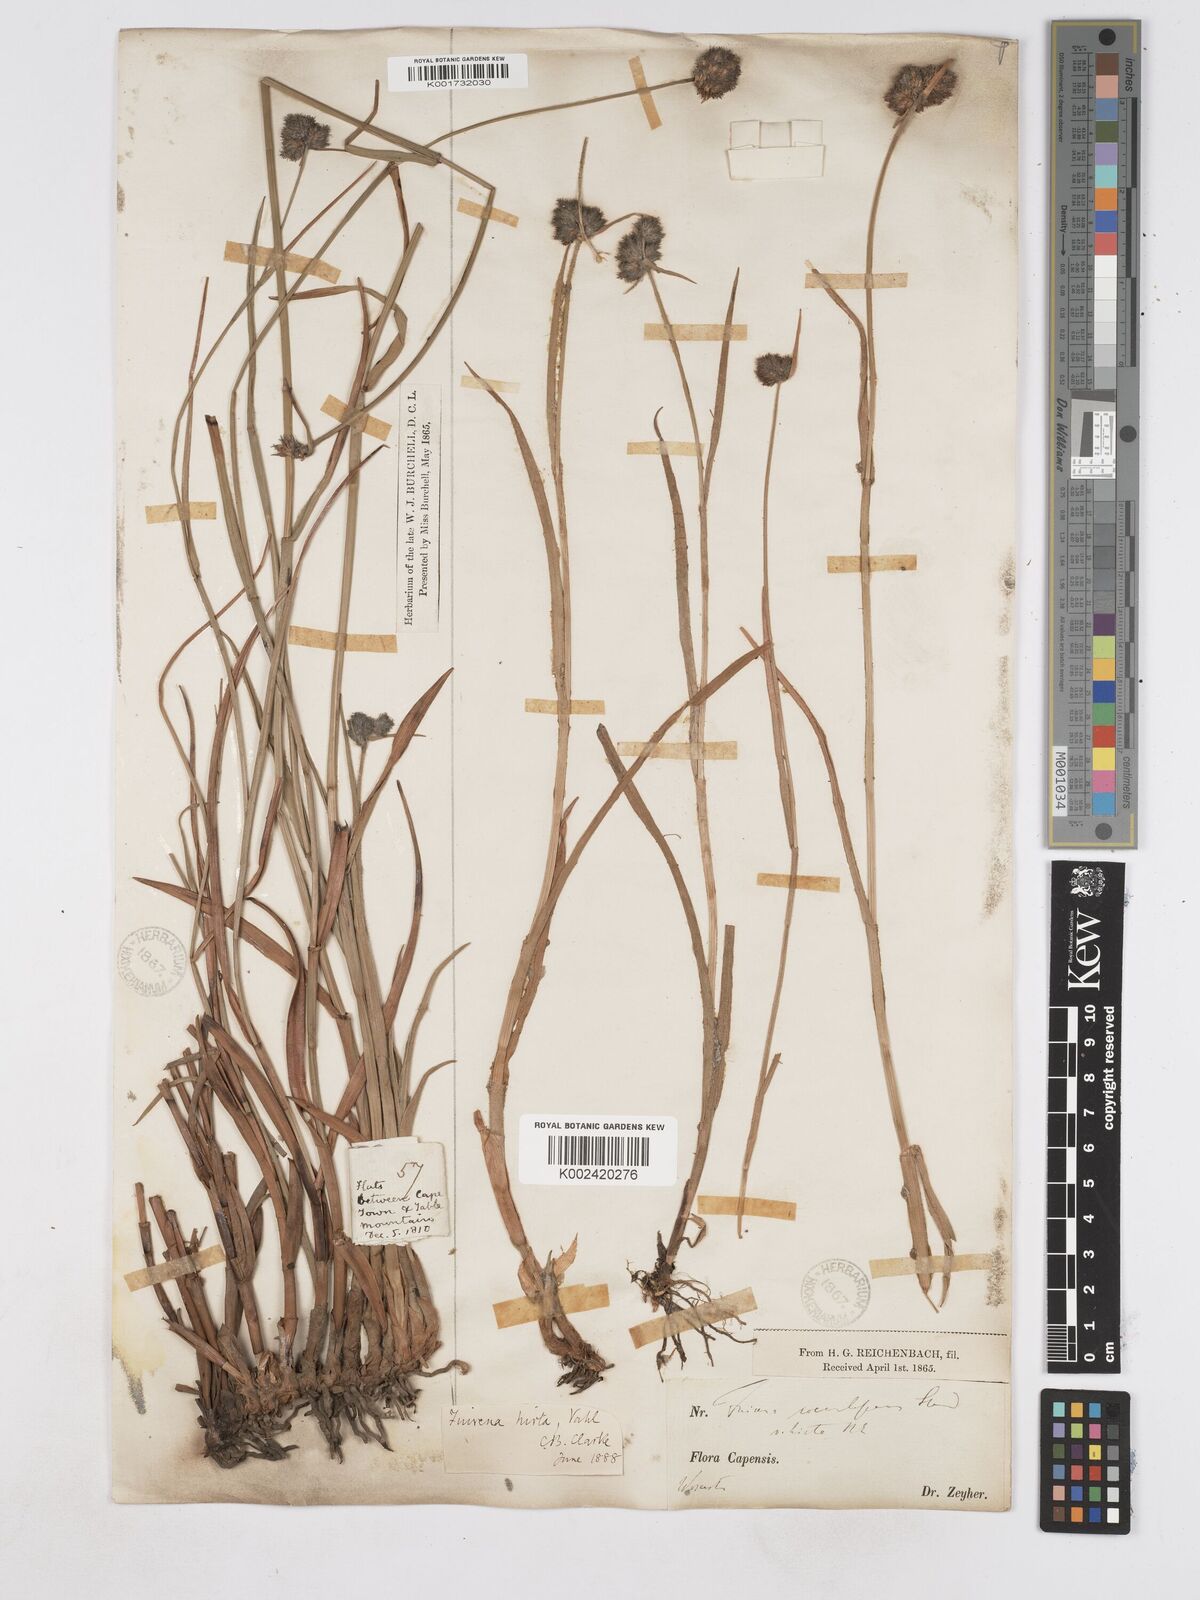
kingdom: Plantae
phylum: Tracheophyta
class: Liliopsida
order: Poales
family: Cyperaceae
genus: Fuirena
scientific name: Fuirena hirsuta
